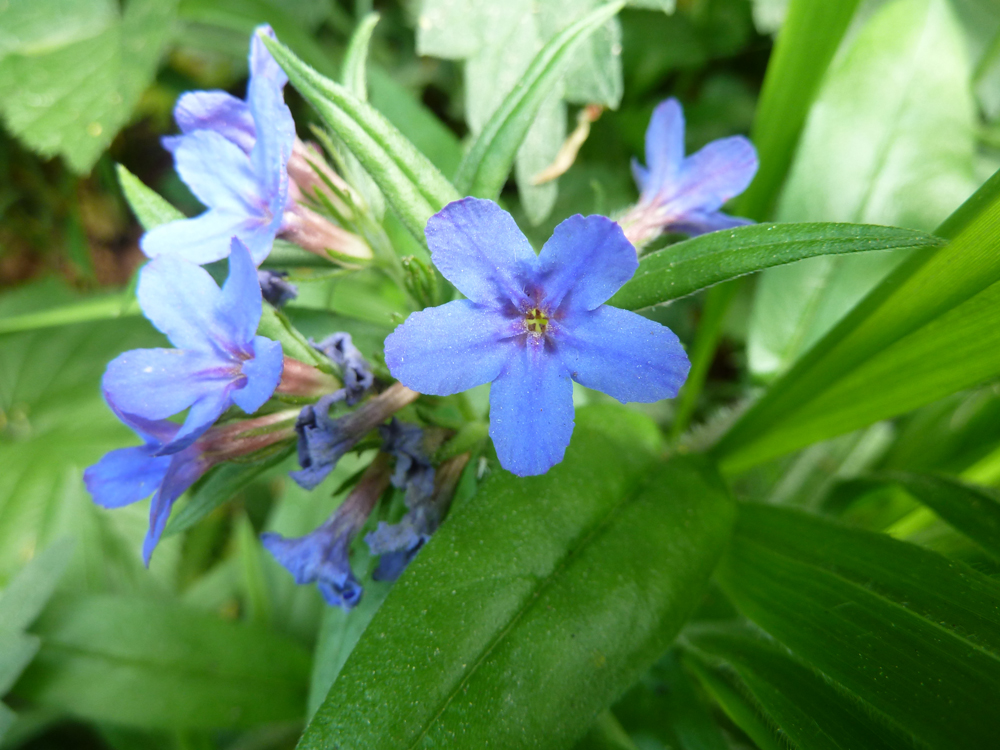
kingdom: Plantae
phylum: Tracheophyta
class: Magnoliopsida
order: Boraginales
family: Boraginaceae
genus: Aegonychon
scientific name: Aegonychon purpurocaeruleum
